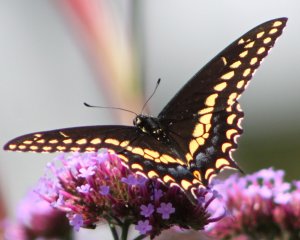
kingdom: Animalia
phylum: Arthropoda
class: Insecta
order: Lepidoptera
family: Papilionidae
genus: Papilio
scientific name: Papilio polyxenes
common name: Black Swallowtail
